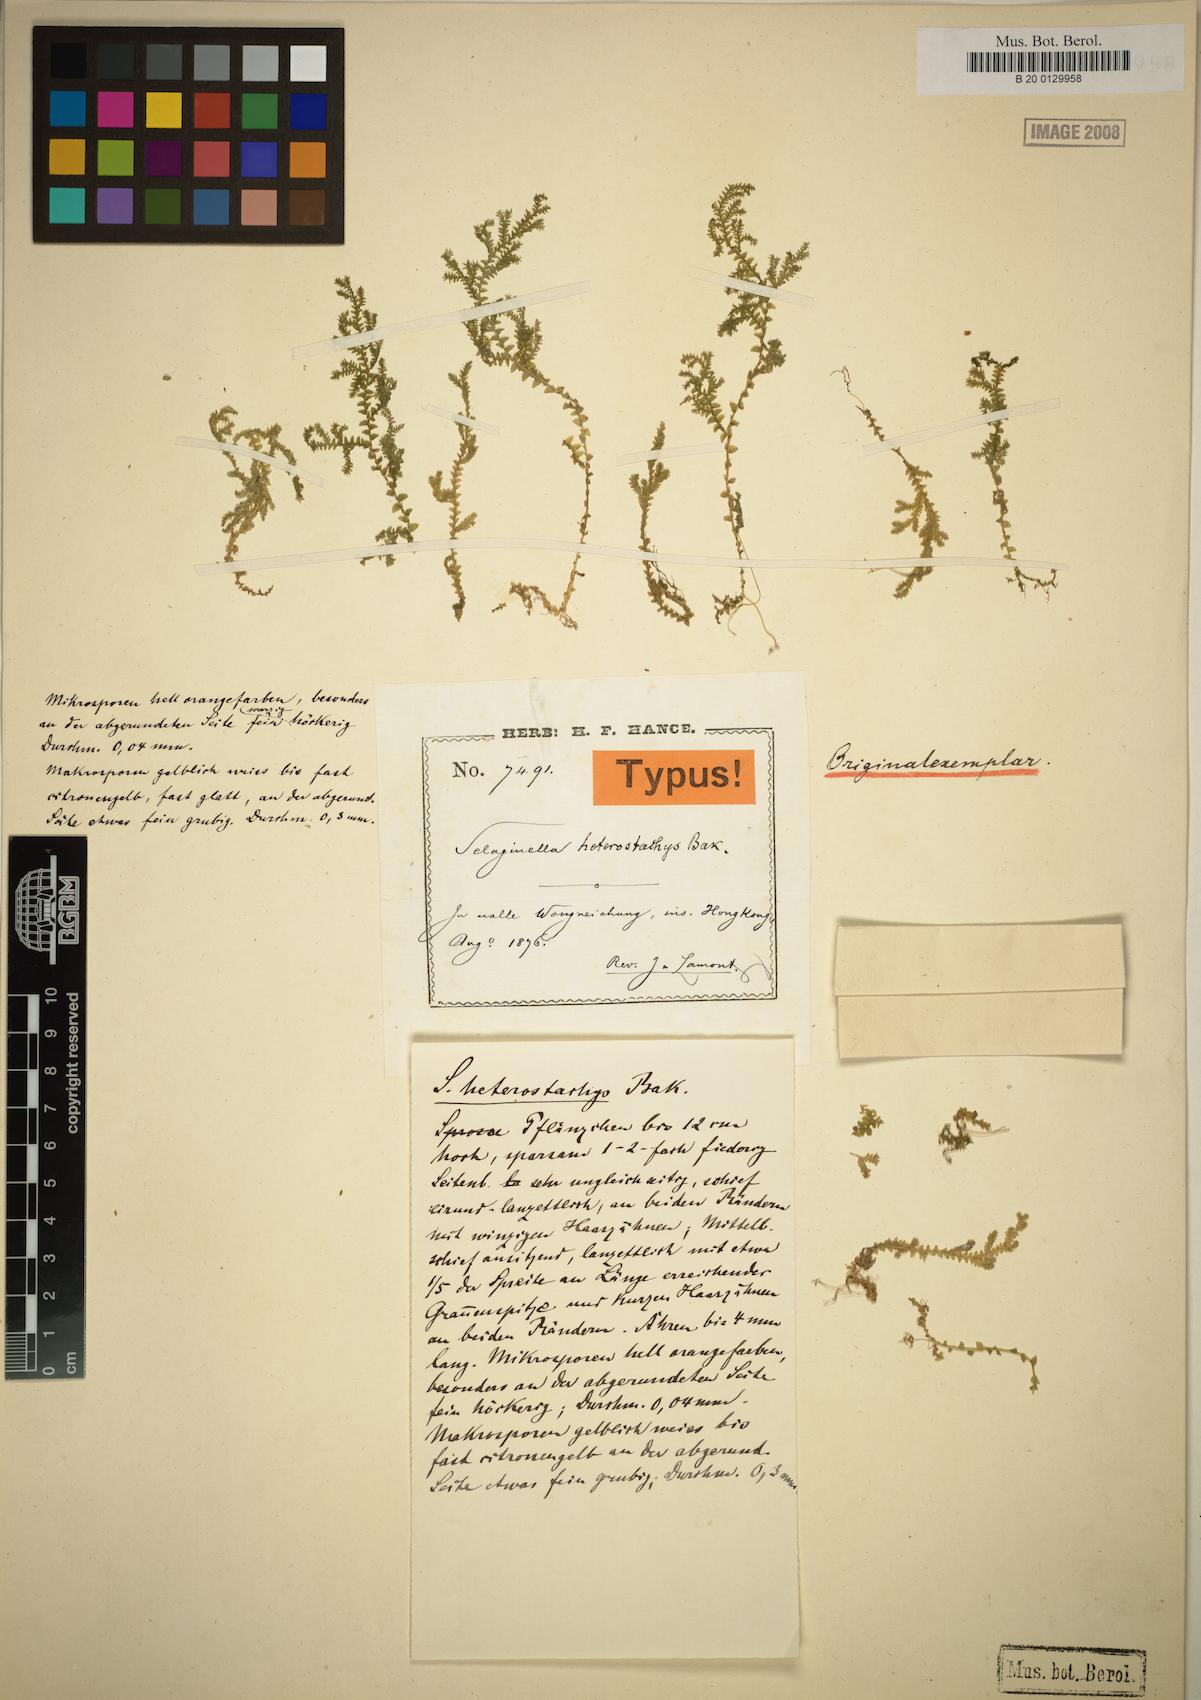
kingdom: Plantae
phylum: Tracheophyta
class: Lycopodiopsida
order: Selaginellales
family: Selaginellaceae
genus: Selaginella
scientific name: Selaginella heterostachys
